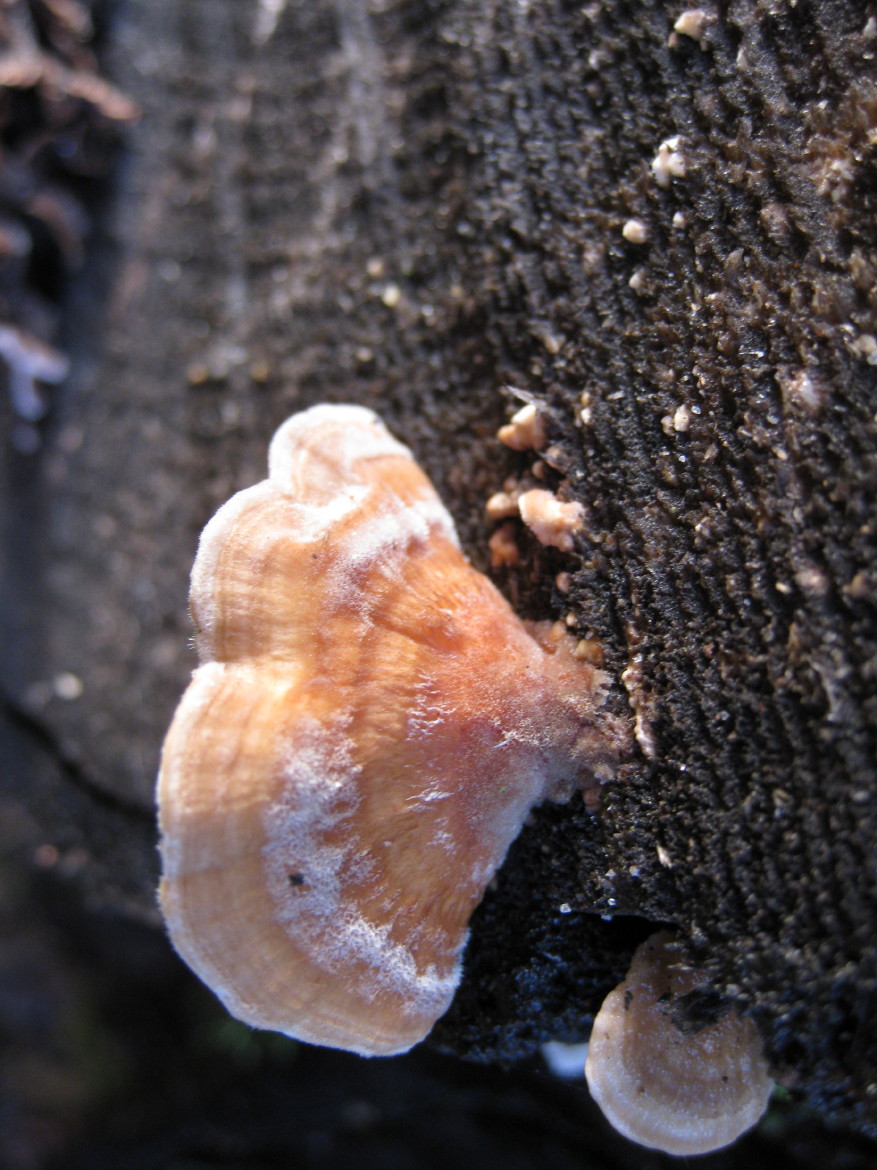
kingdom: Fungi
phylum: Basidiomycota
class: Agaricomycetes
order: Polyporales
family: Polyporaceae
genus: Trametes
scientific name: Trametes ochracea
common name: bæltet læderporesvamp
